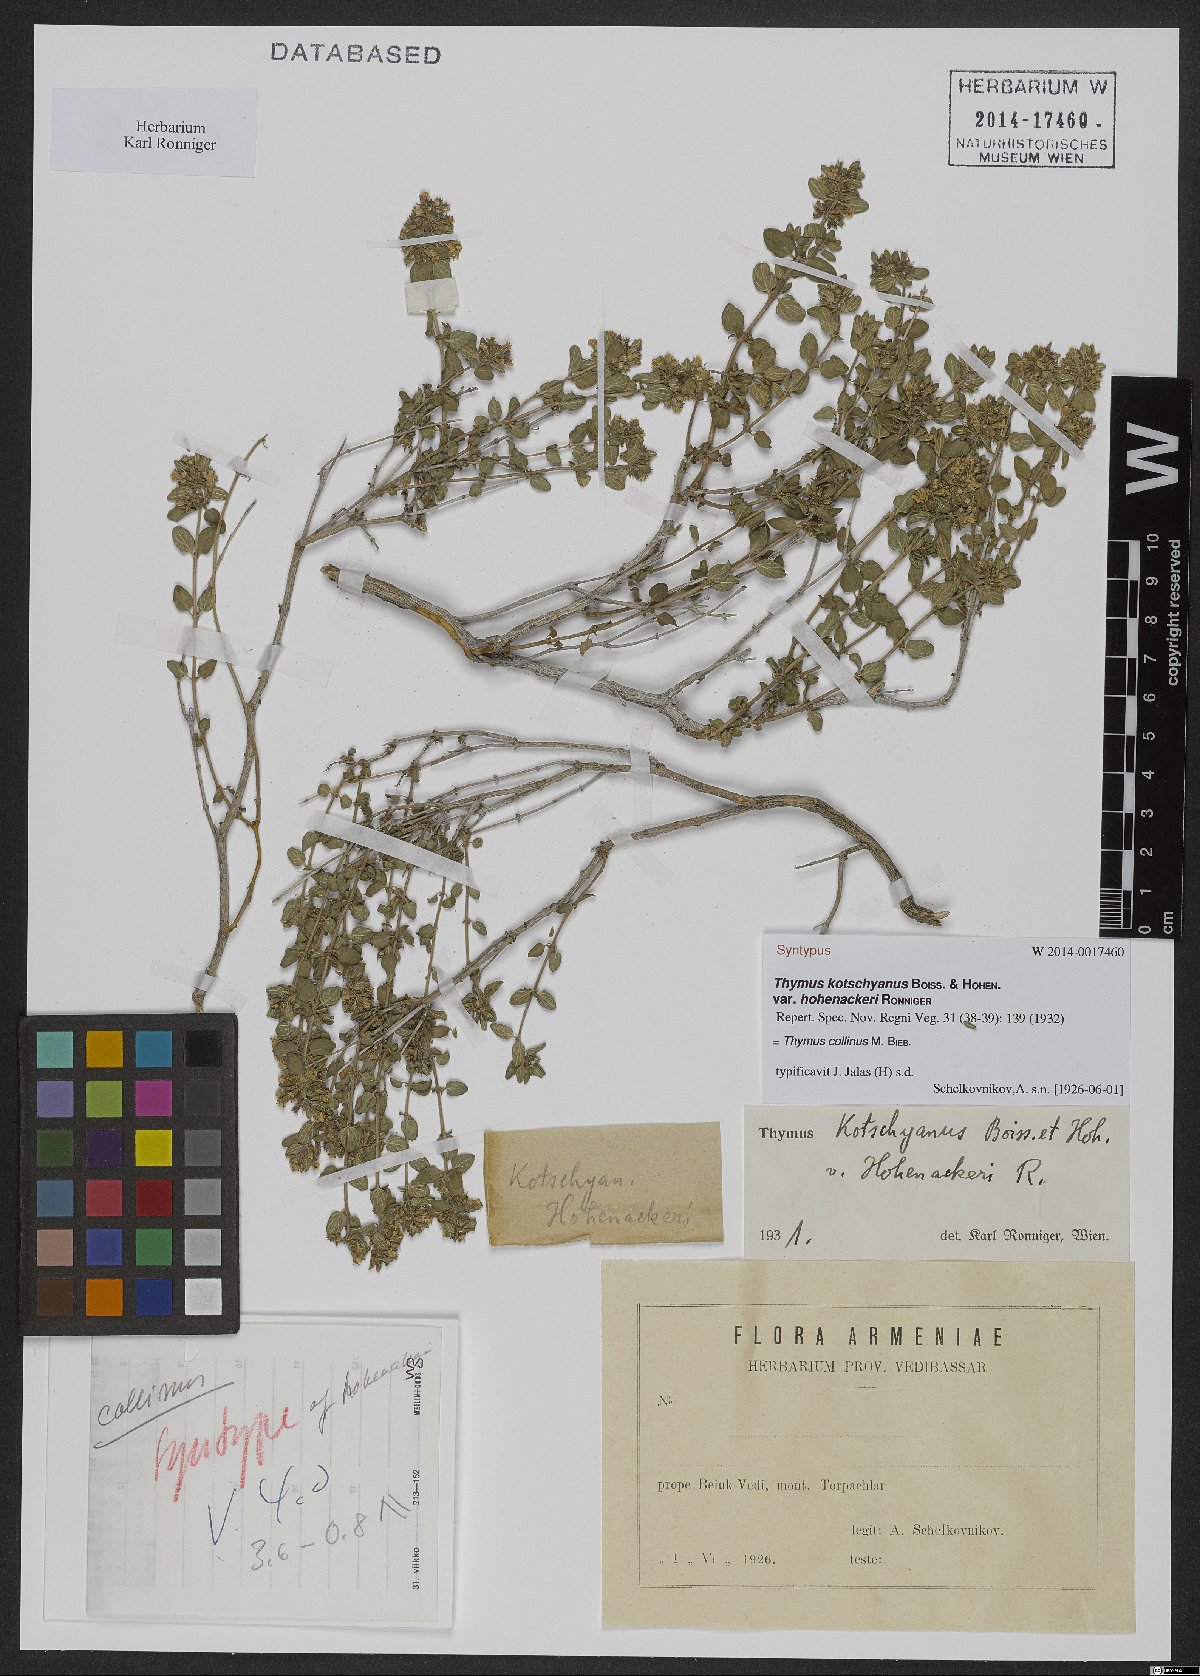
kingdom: Plantae
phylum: Tracheophyta
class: Magnoliopsida
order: Lamiales
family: Lamiaceae
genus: Thymus
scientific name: Thymus collinus
